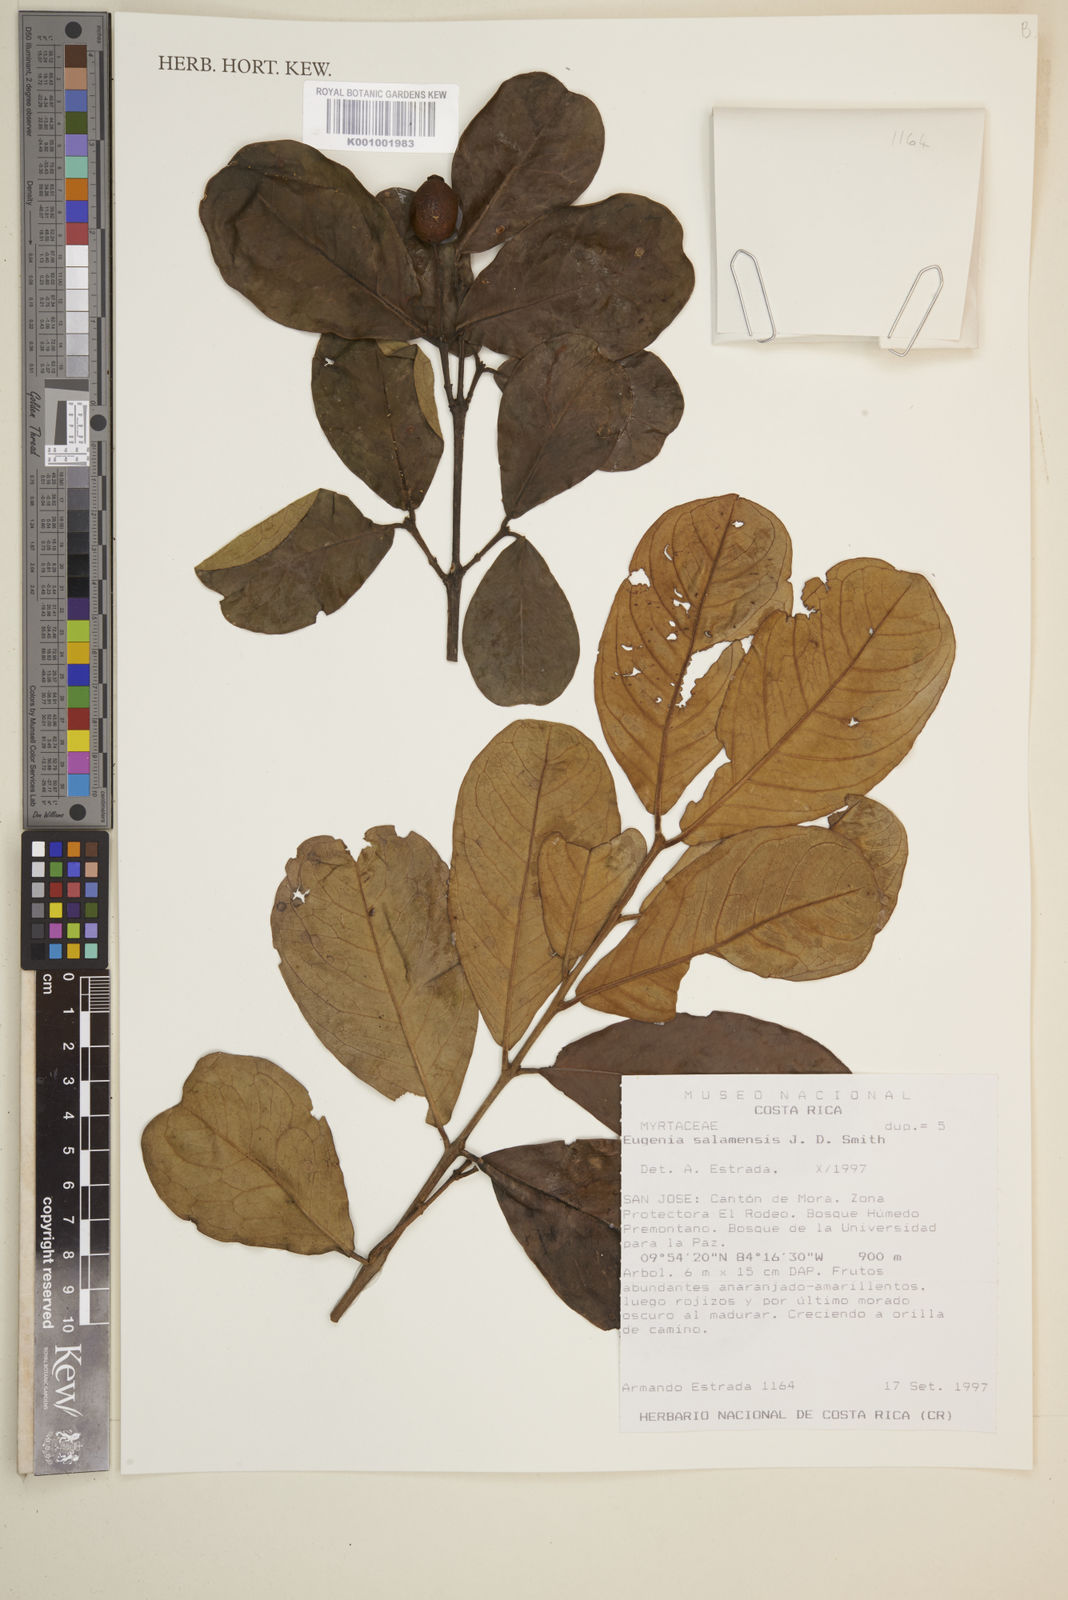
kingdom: Plantae
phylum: Tracheophyta
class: Magnoliopsida
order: Myrtales
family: Myrtaceae
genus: Eugenia
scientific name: Eugenia salamensis
